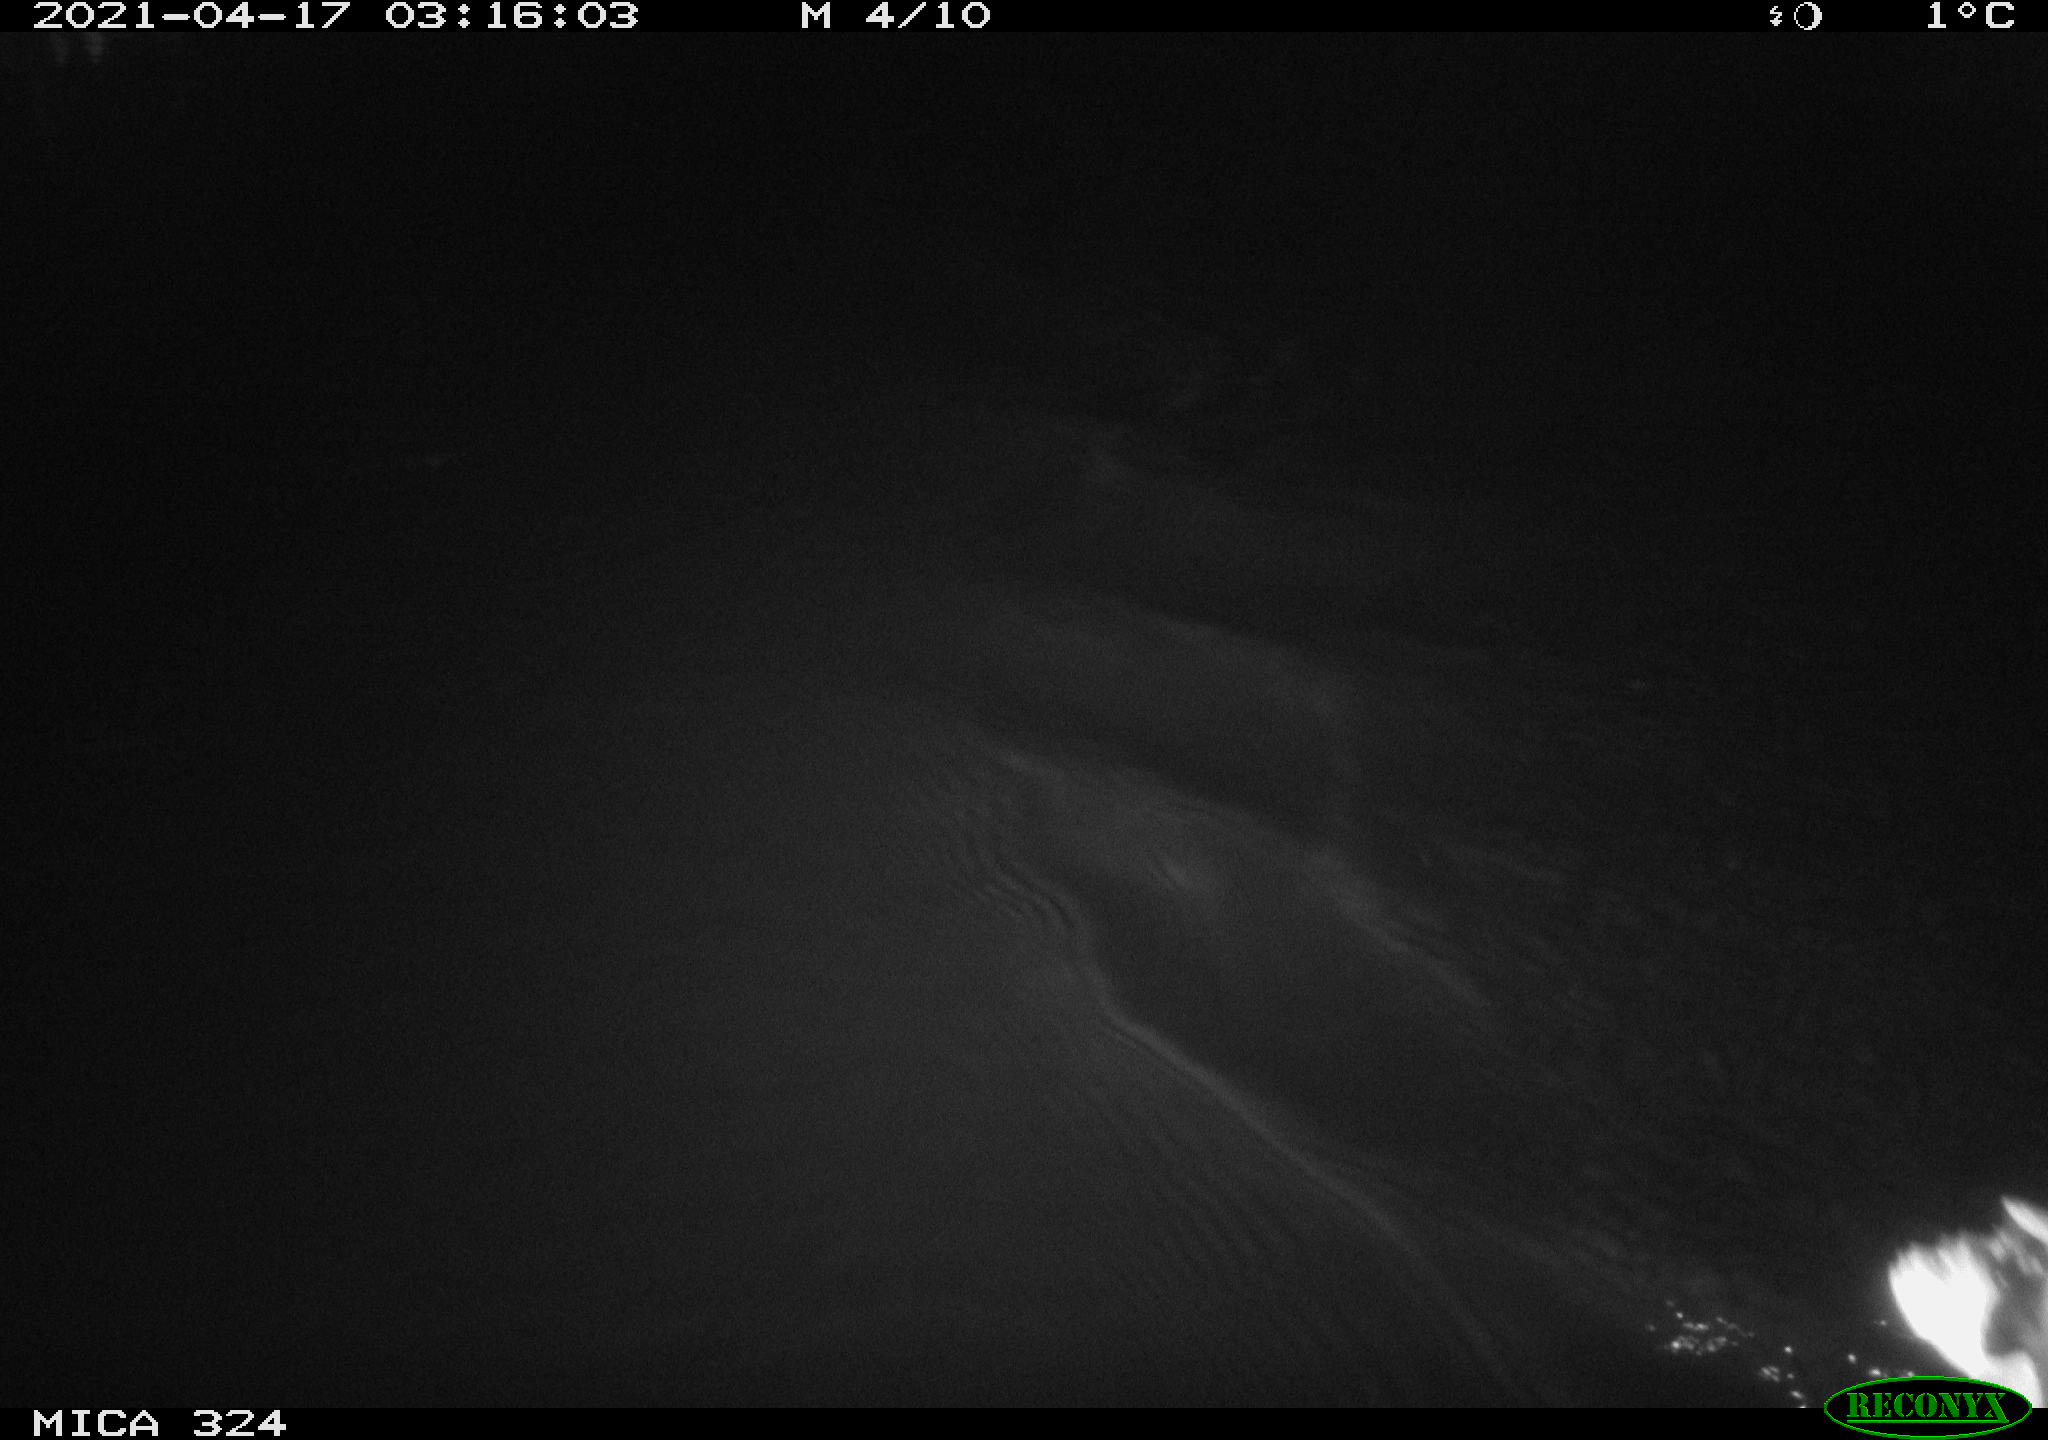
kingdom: Animalia
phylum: Chordata
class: Aves
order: Anseriformes
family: Anatidae
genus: Anas
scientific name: Anas
